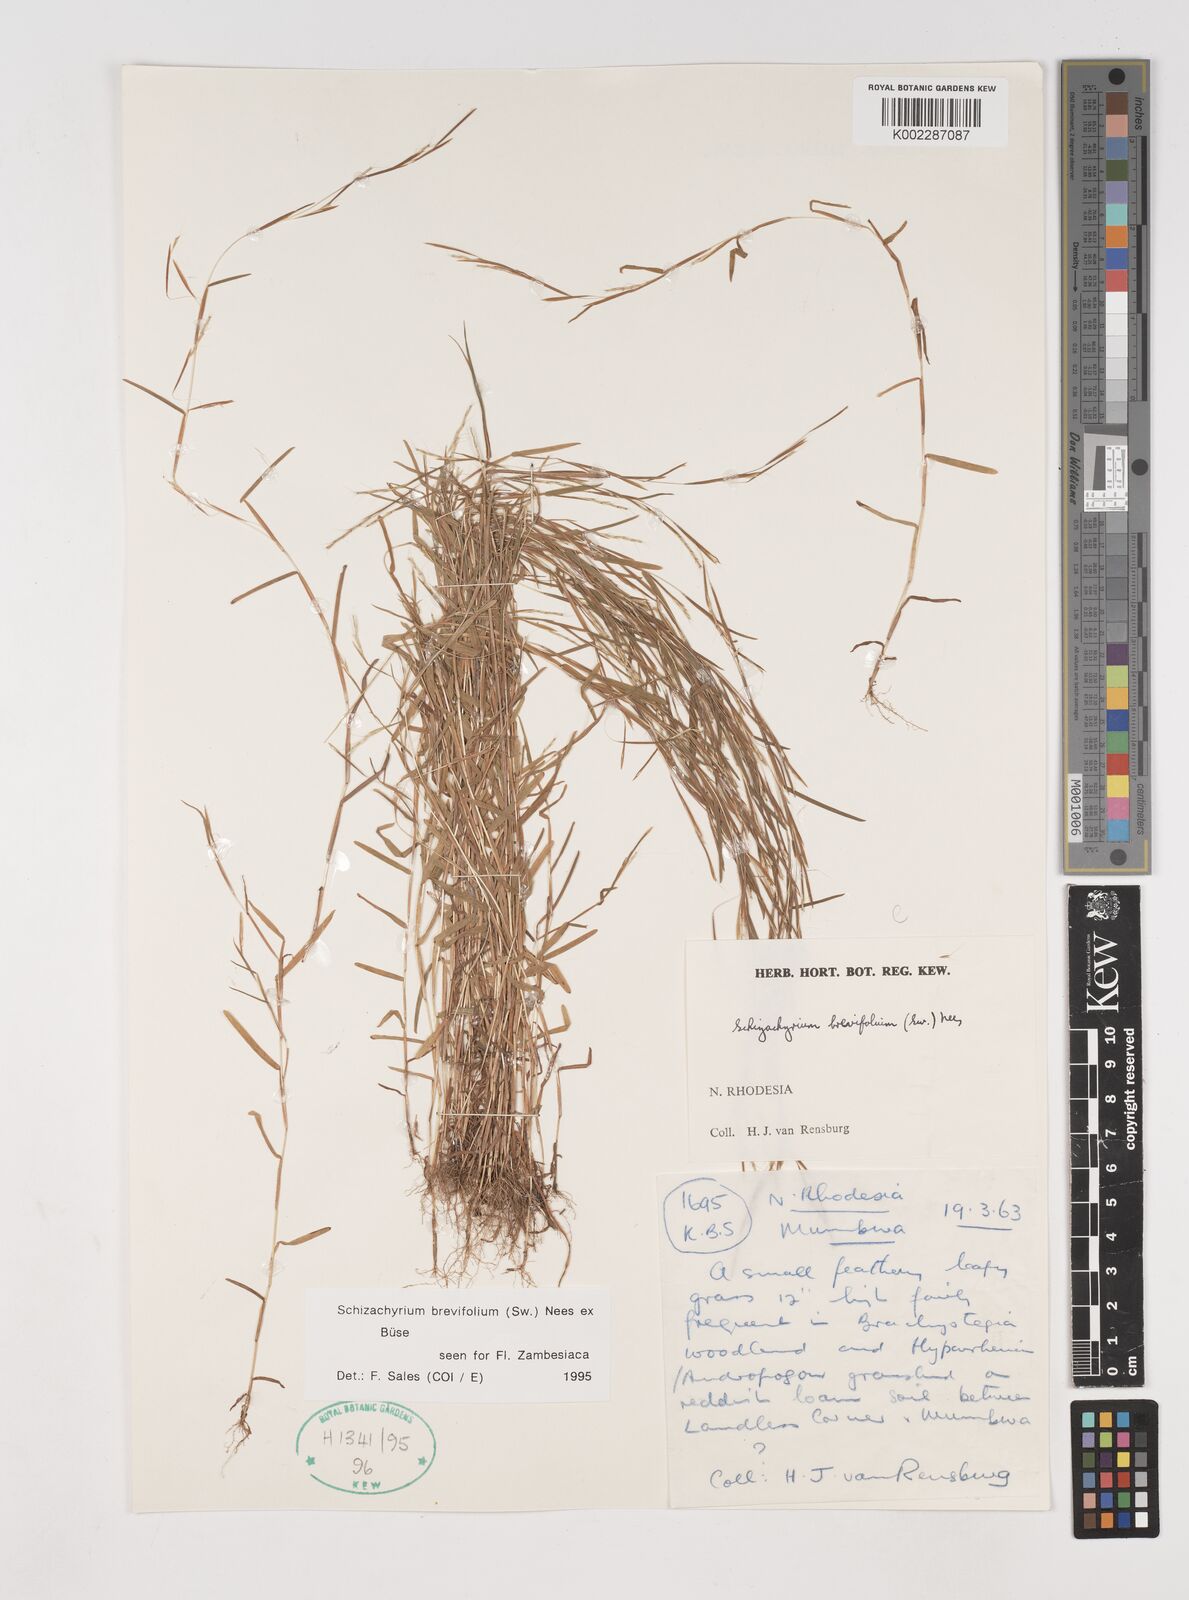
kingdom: Plantae
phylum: Tracheophyta
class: Liliopsida
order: Poales
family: Poaceae
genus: Schizachyrium
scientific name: Schizachyrium brevifolium
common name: Serillo dulce
